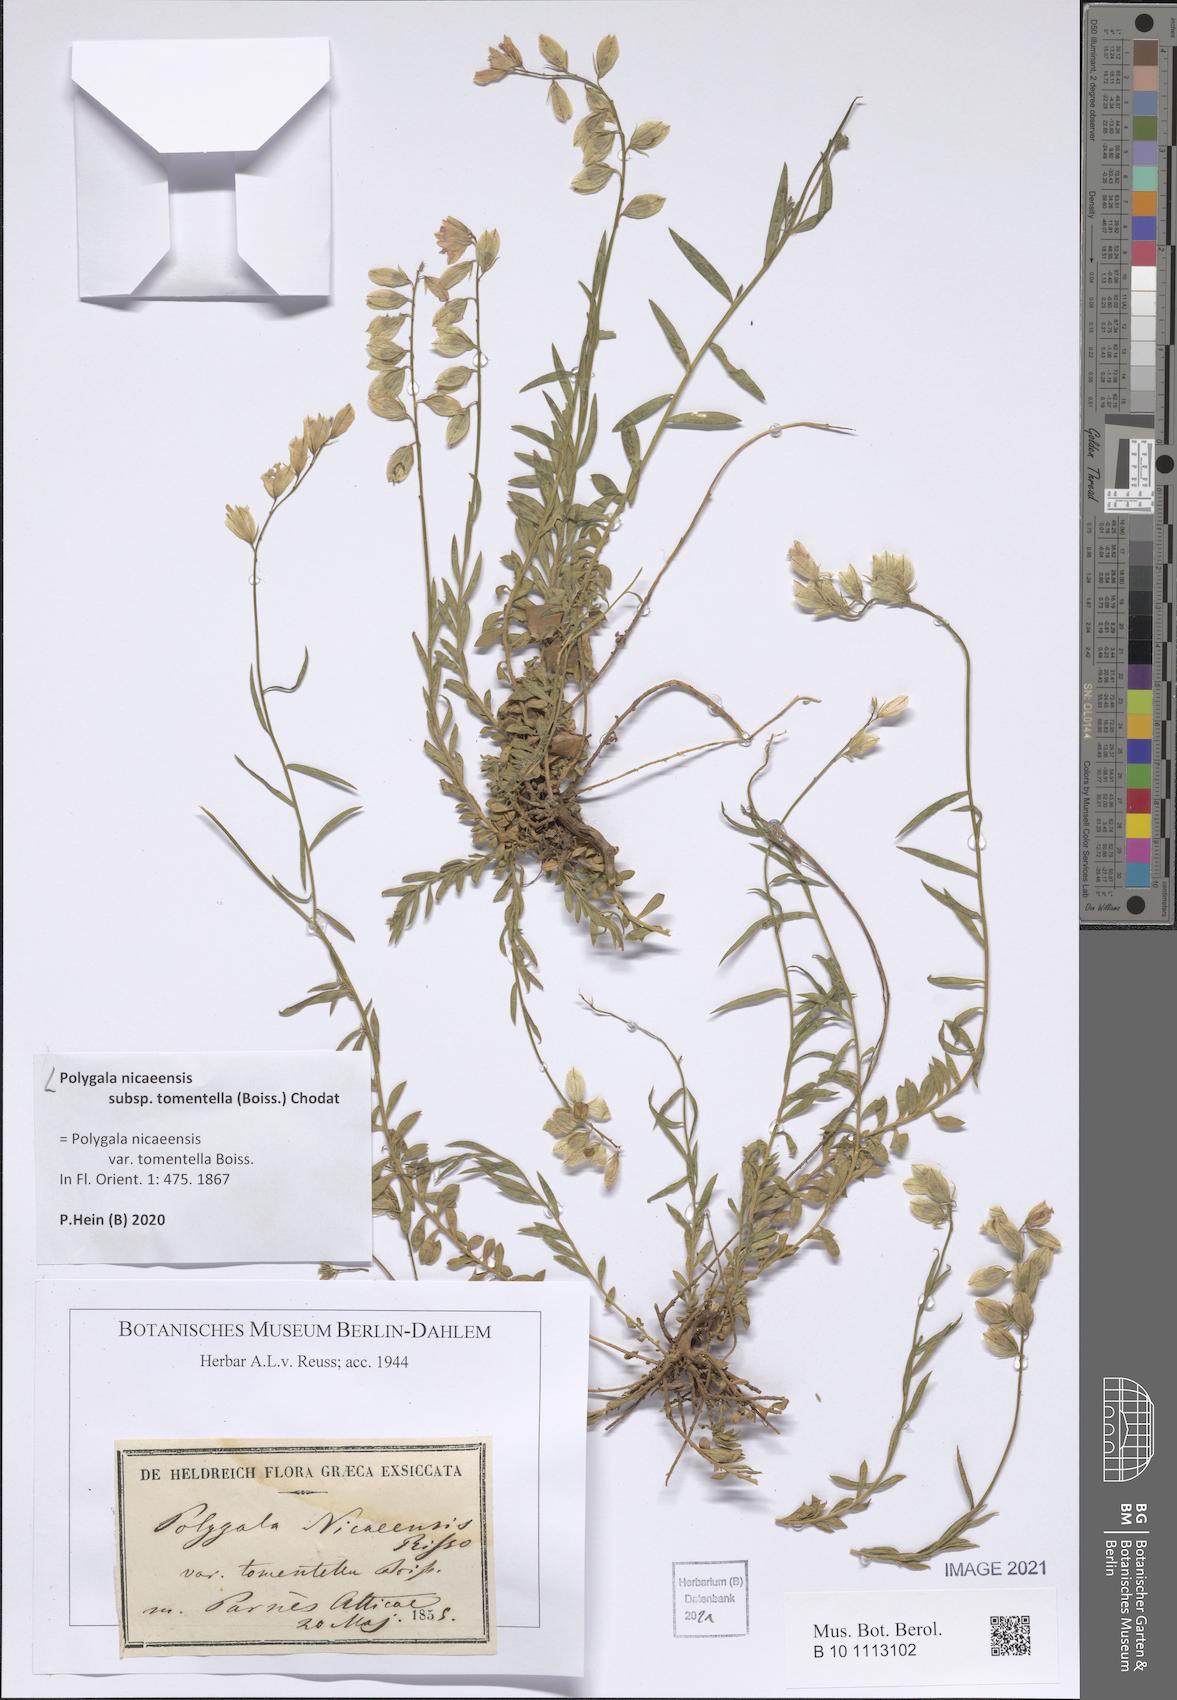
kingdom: Plantae
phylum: Tracheophyta
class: Magnoliopsida
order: Fabales
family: Polygalaceae
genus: Polygala
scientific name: Polygala nicaeensis
